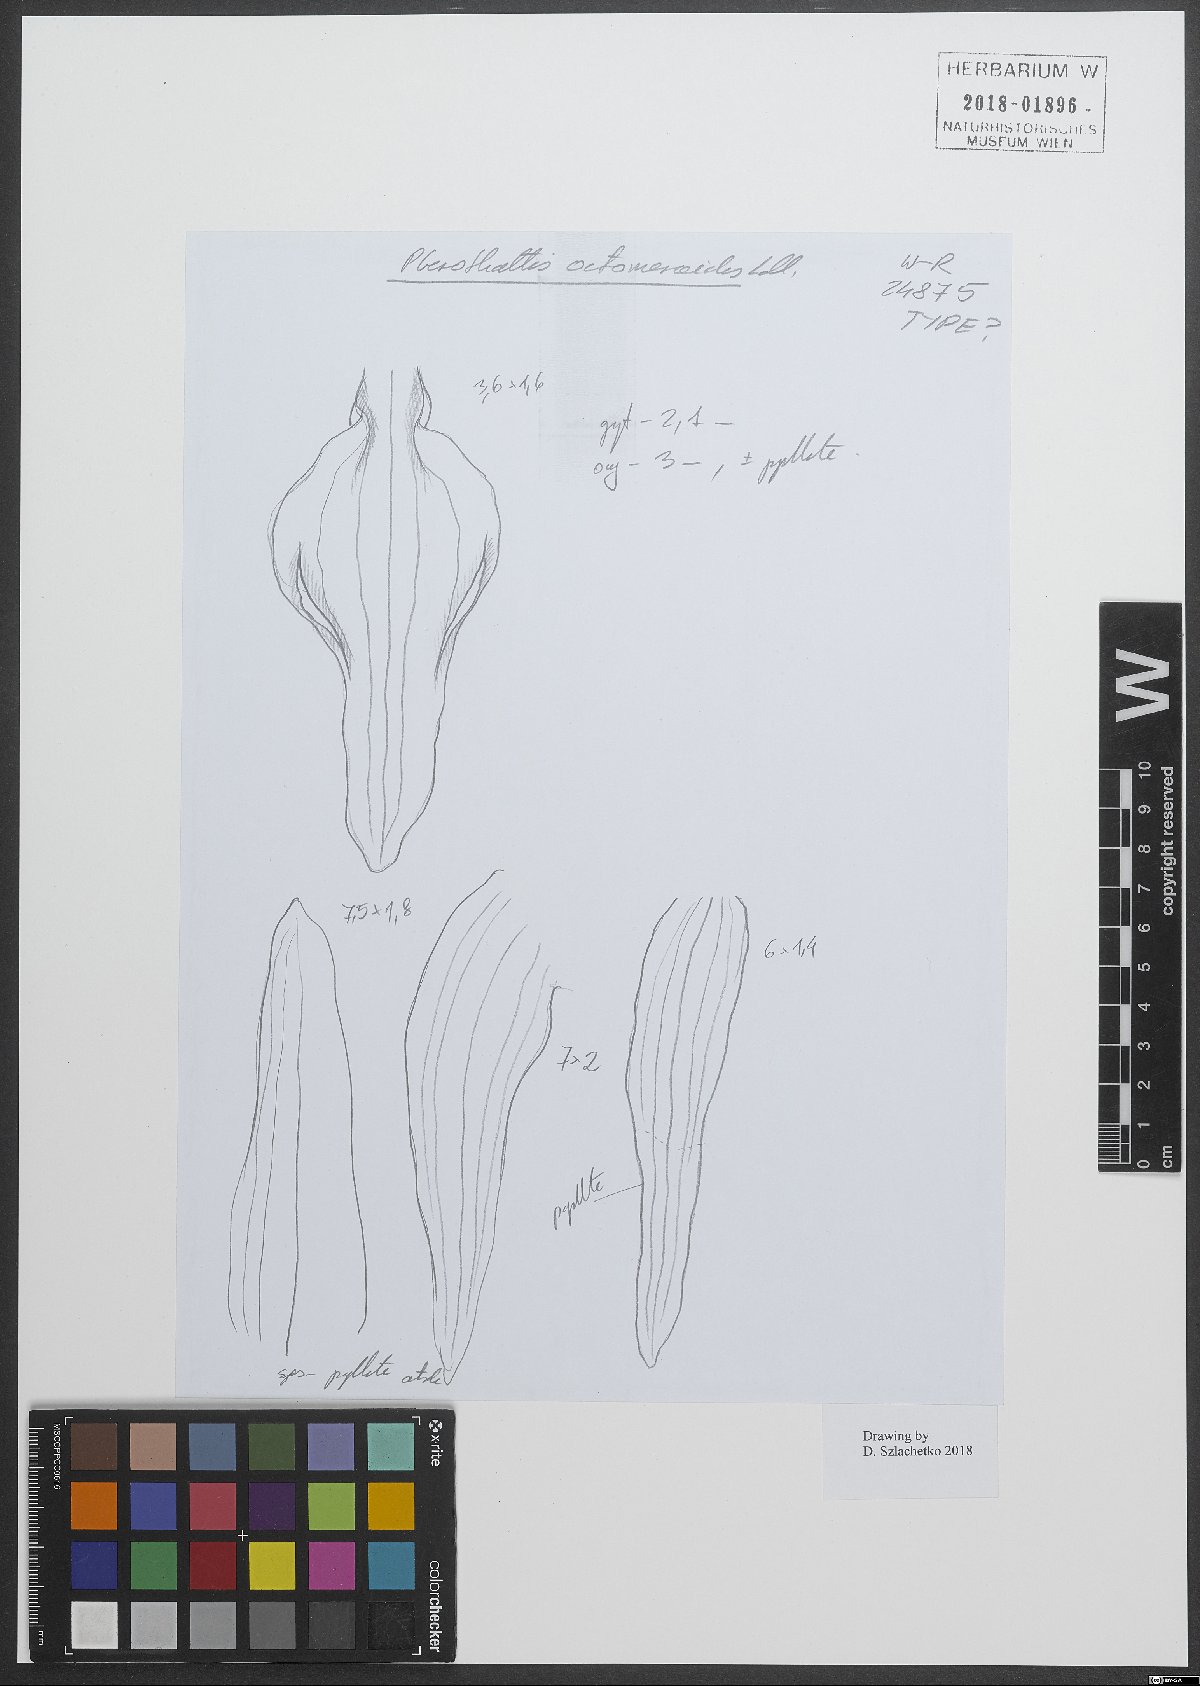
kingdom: Plantae
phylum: Tracheophyta
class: Liliopsida
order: Asparagales
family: Orchidaceae
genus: Myoxanthus
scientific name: Myoxanthus octomerioides
